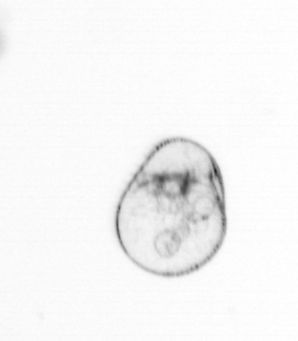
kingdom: Chromista
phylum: Myzozoa
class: Dinophyceae
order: Noctilucales
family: Noctilucaceae
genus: Noctiluca
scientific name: Noctiluca scintillans
